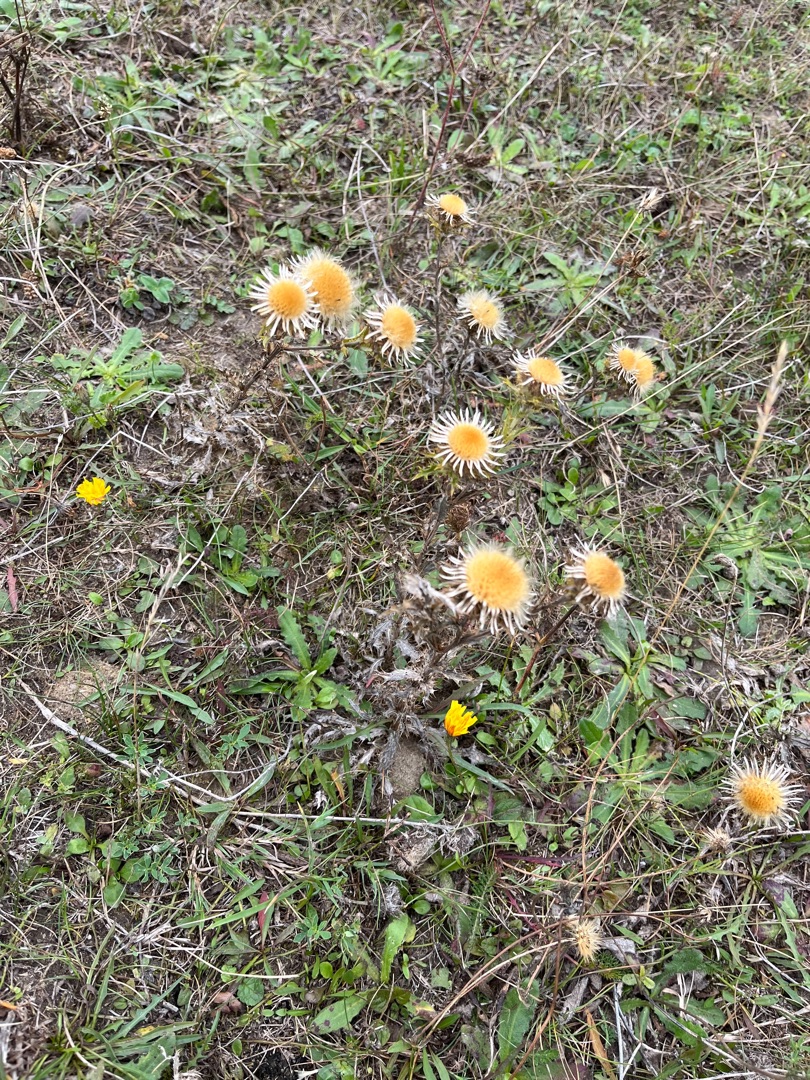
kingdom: Plantae
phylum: Tracheophyta
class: Magnoliopsida
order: Asterales
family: Asteraceae
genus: Carlina
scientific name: Carlina vulgaris
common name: Bakketidsel
